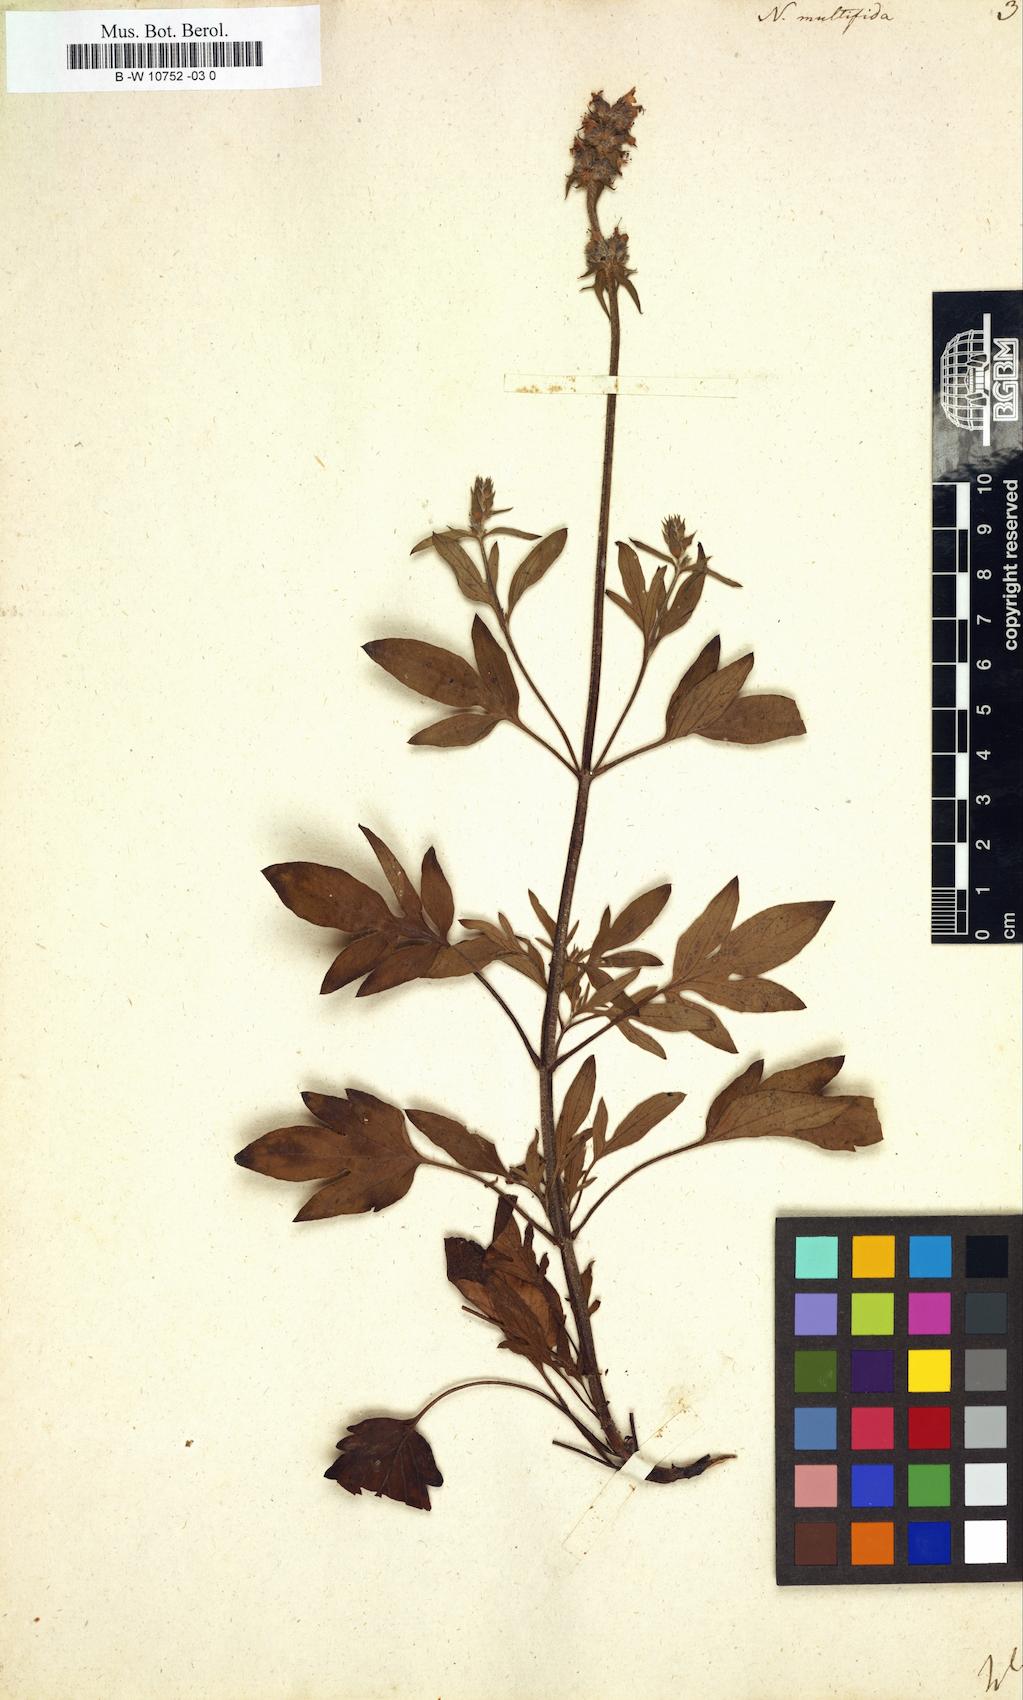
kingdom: Plantae
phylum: Tracheophyta
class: Magnoliopsida
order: Lamiales
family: Lamiaceae
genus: Nepeta
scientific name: Nepeta multifida
